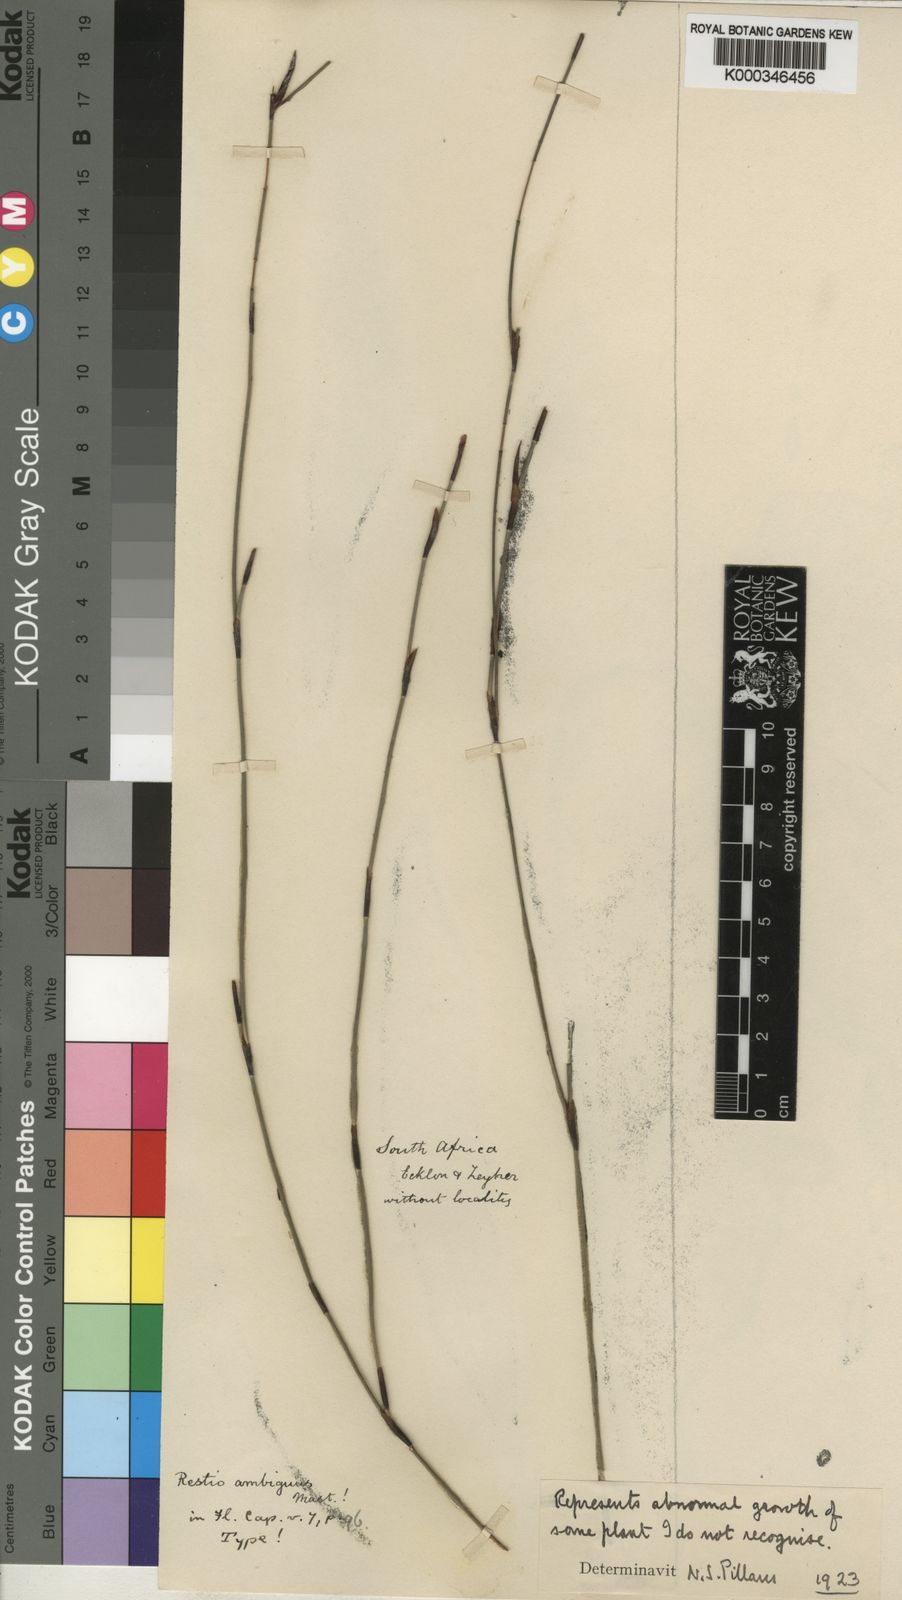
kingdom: Plantae
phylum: Tracheophyta
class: Liliopsida
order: Poales
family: Restionaceae
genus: Restio
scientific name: Restio arcuatus
